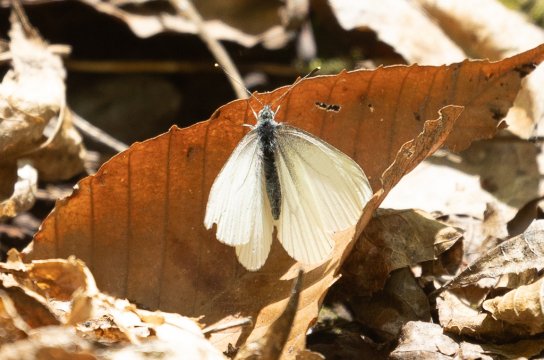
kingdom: Animalia
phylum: Arthropoda
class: Insecta
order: Lepidoptera
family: Pieridae
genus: Pieris
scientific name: Pieris
